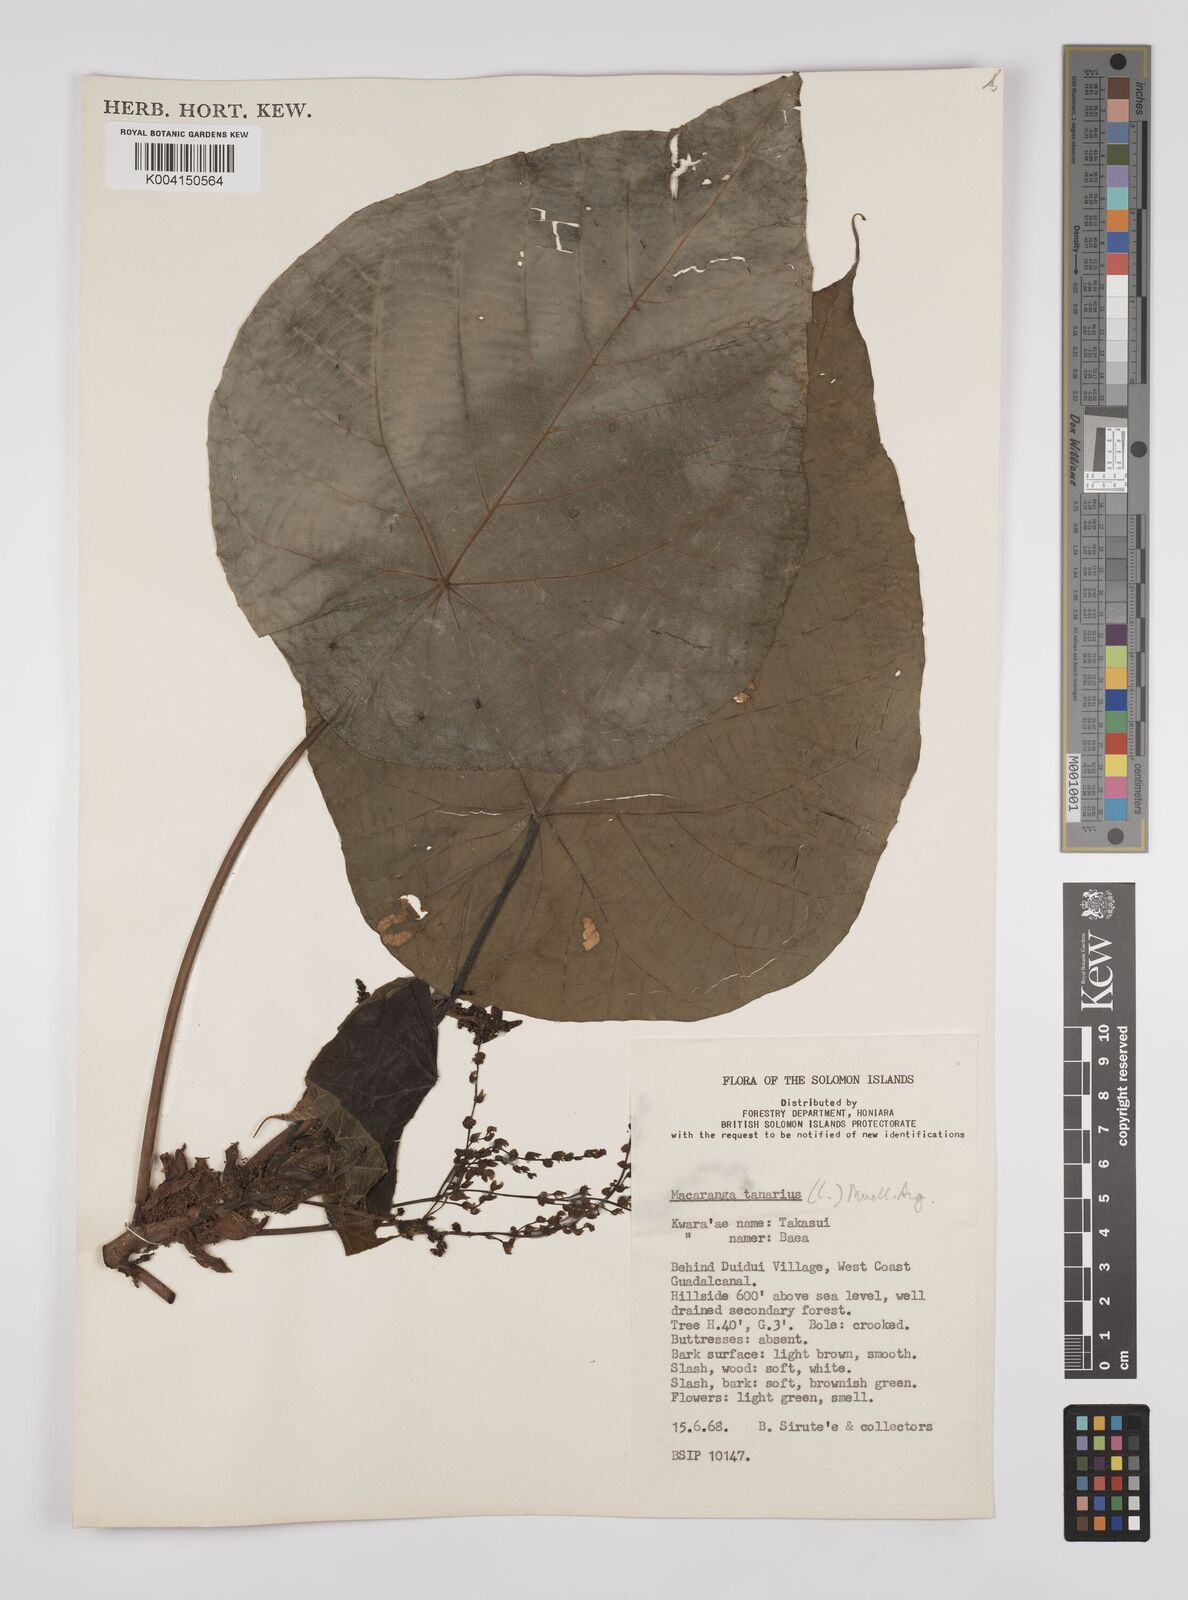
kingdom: Plantae
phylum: Tracheophyta
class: Magnoliopsida
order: Malpighiales
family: Euphorbiaceae
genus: Macaranga
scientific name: Macaranga tanarius
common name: Parasol leaf tree
